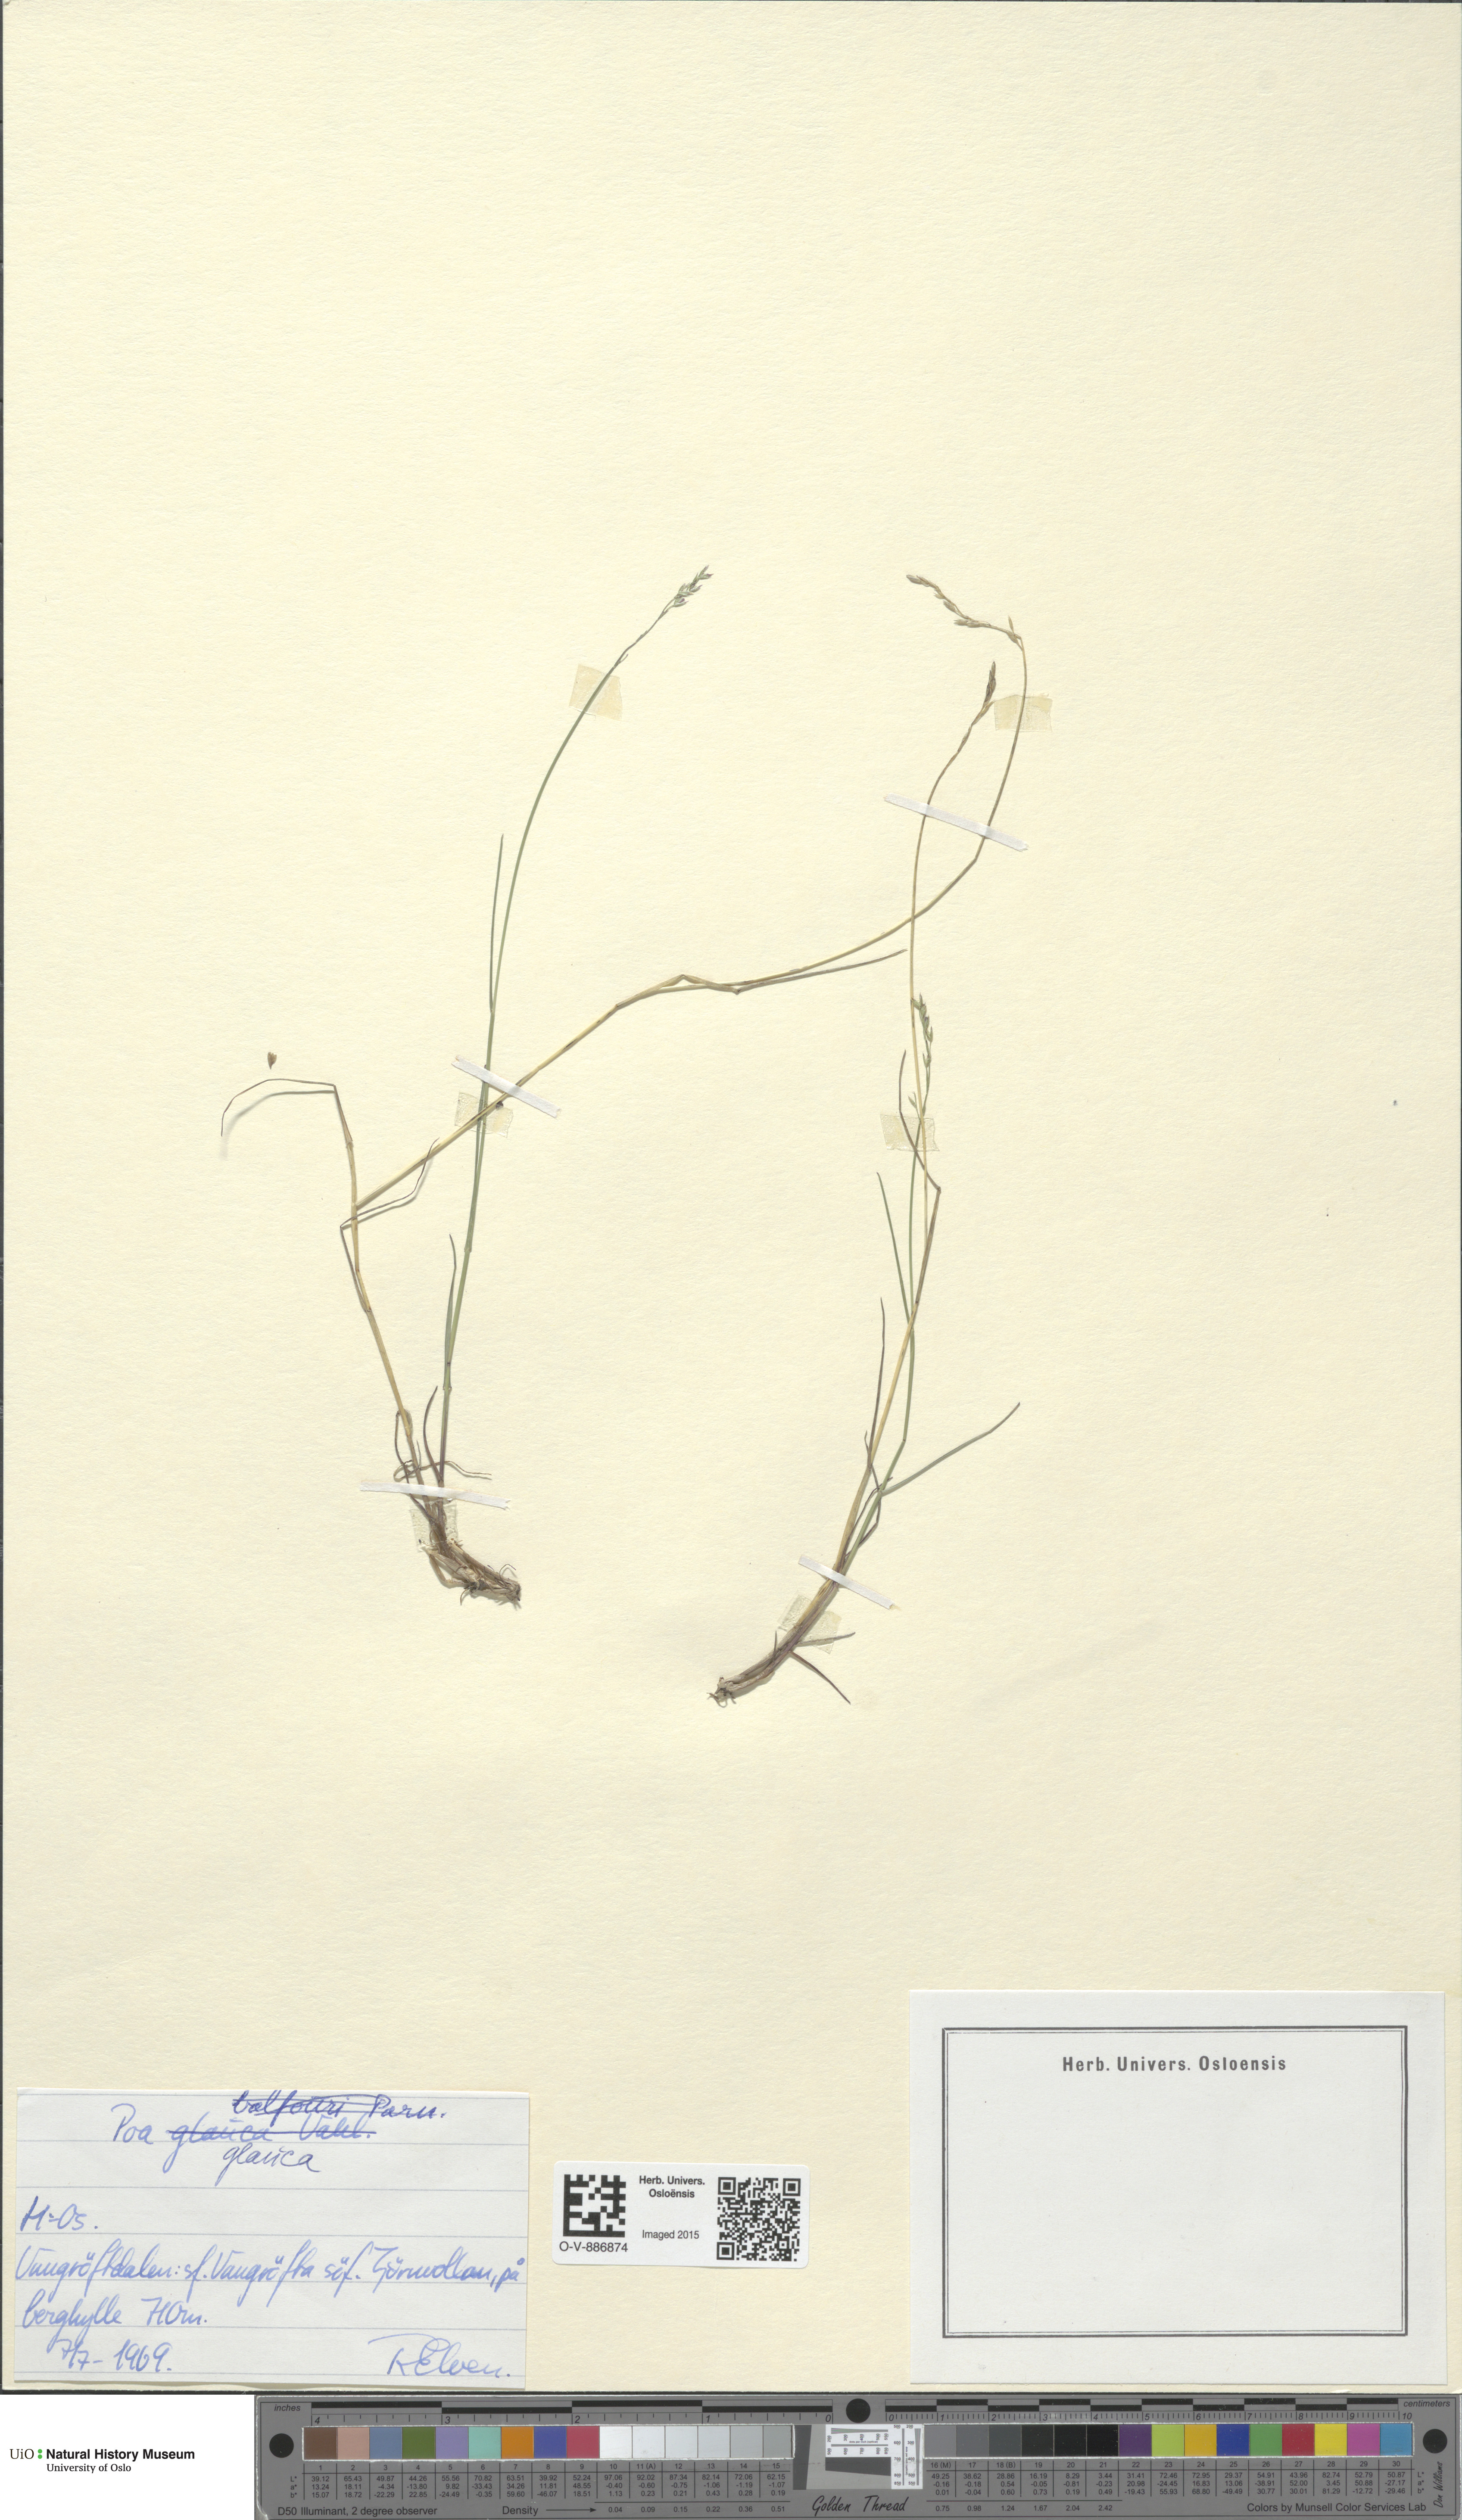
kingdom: Plantae
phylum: Tracheophyta
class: Liliopsida
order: Poales
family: Poaceae
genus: Poa
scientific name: Poa glauca
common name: Glaucous bluegrass
